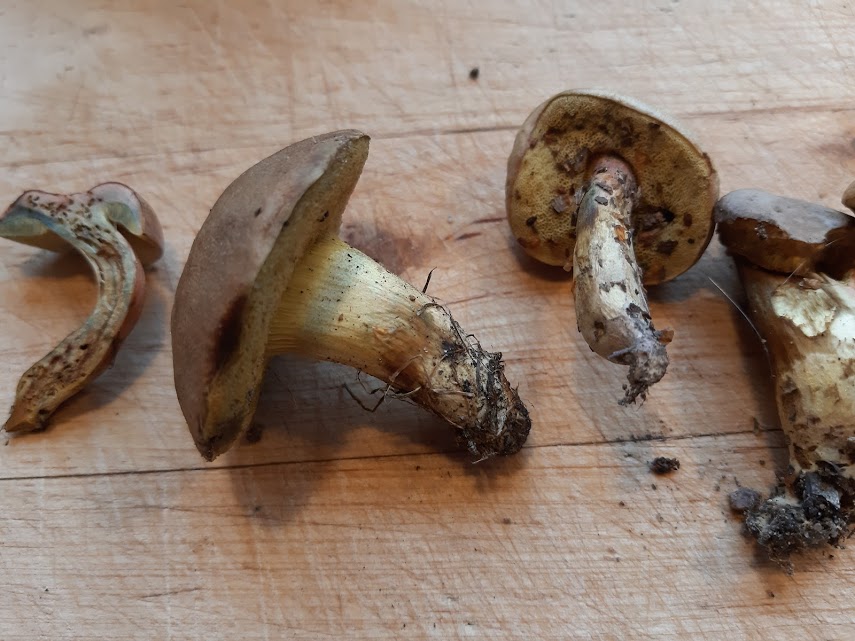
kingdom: Fungi
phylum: Basidiomycota
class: Agaricomycetes
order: Boletales
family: Boletaceae
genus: Hortiboletus
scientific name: Hortiboletus bubalinus
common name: aurora-rørhat
